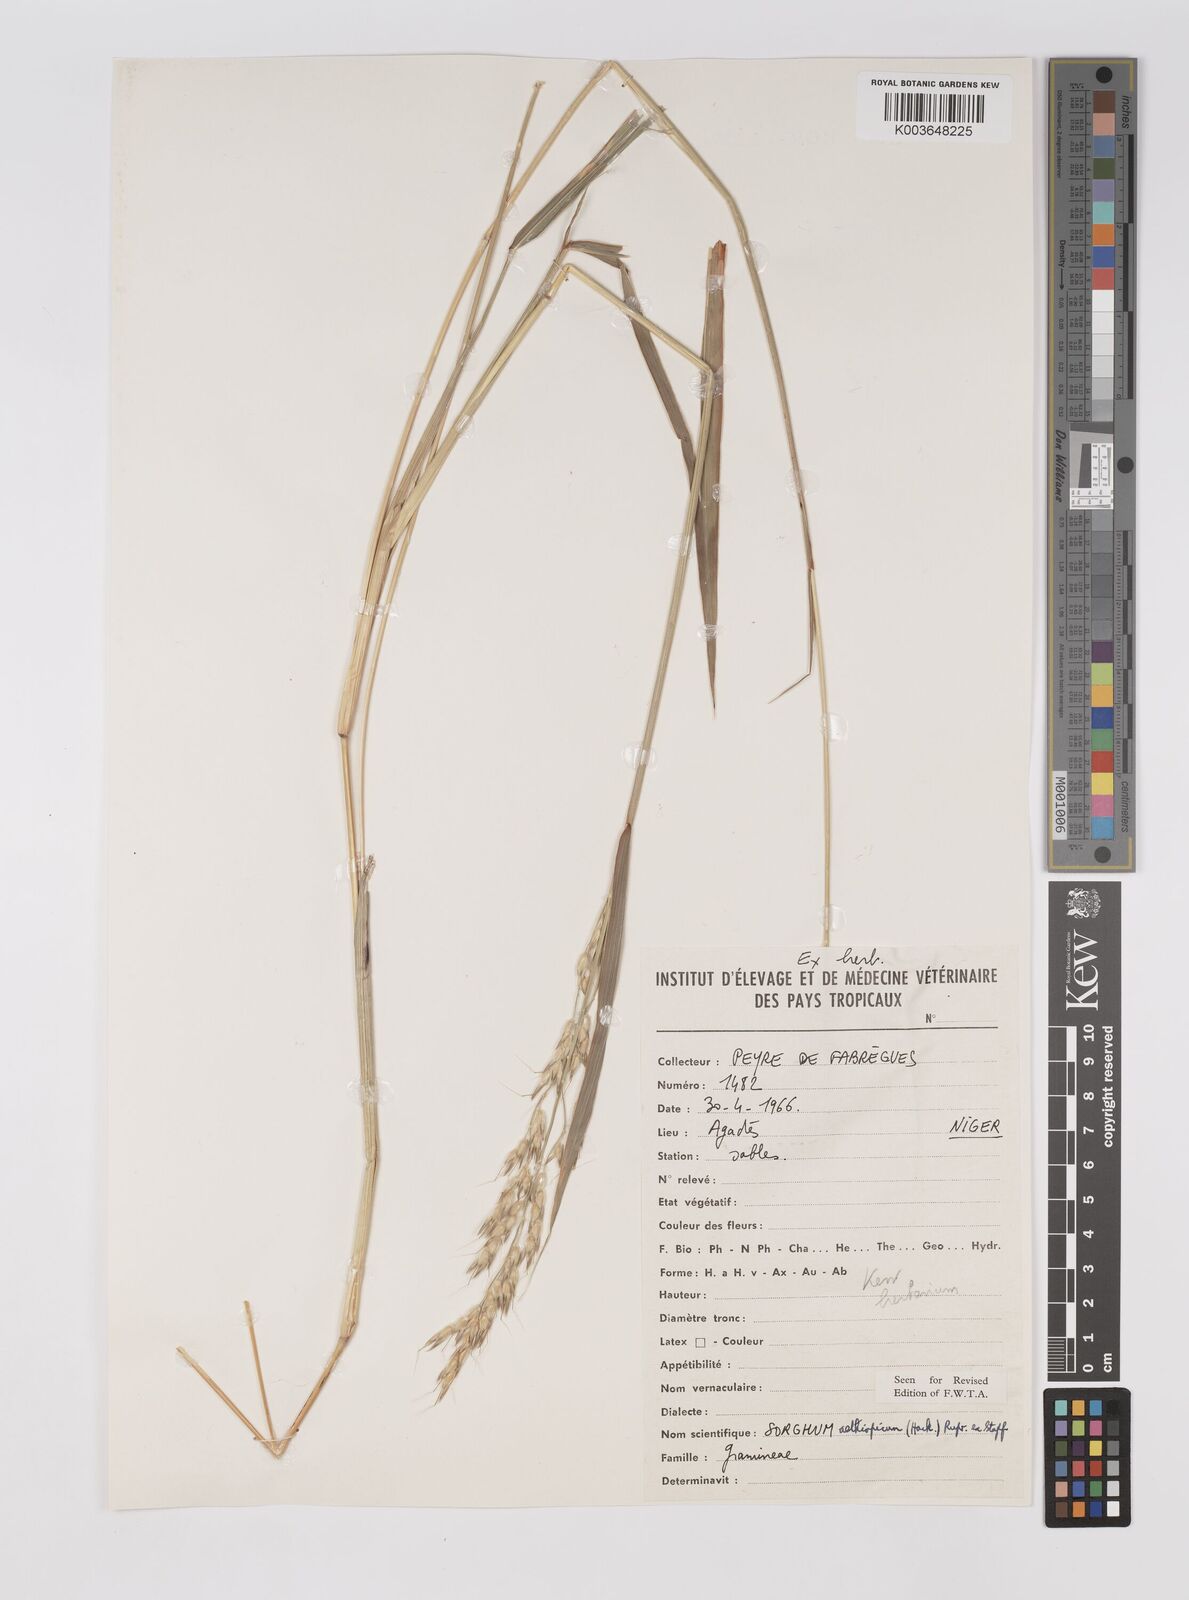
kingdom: Plantae
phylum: Tracheophyta
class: Liliopsida
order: Poales
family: Poaceae
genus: Sorghum
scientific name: Sorghum arundinaceum
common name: Sorghum
